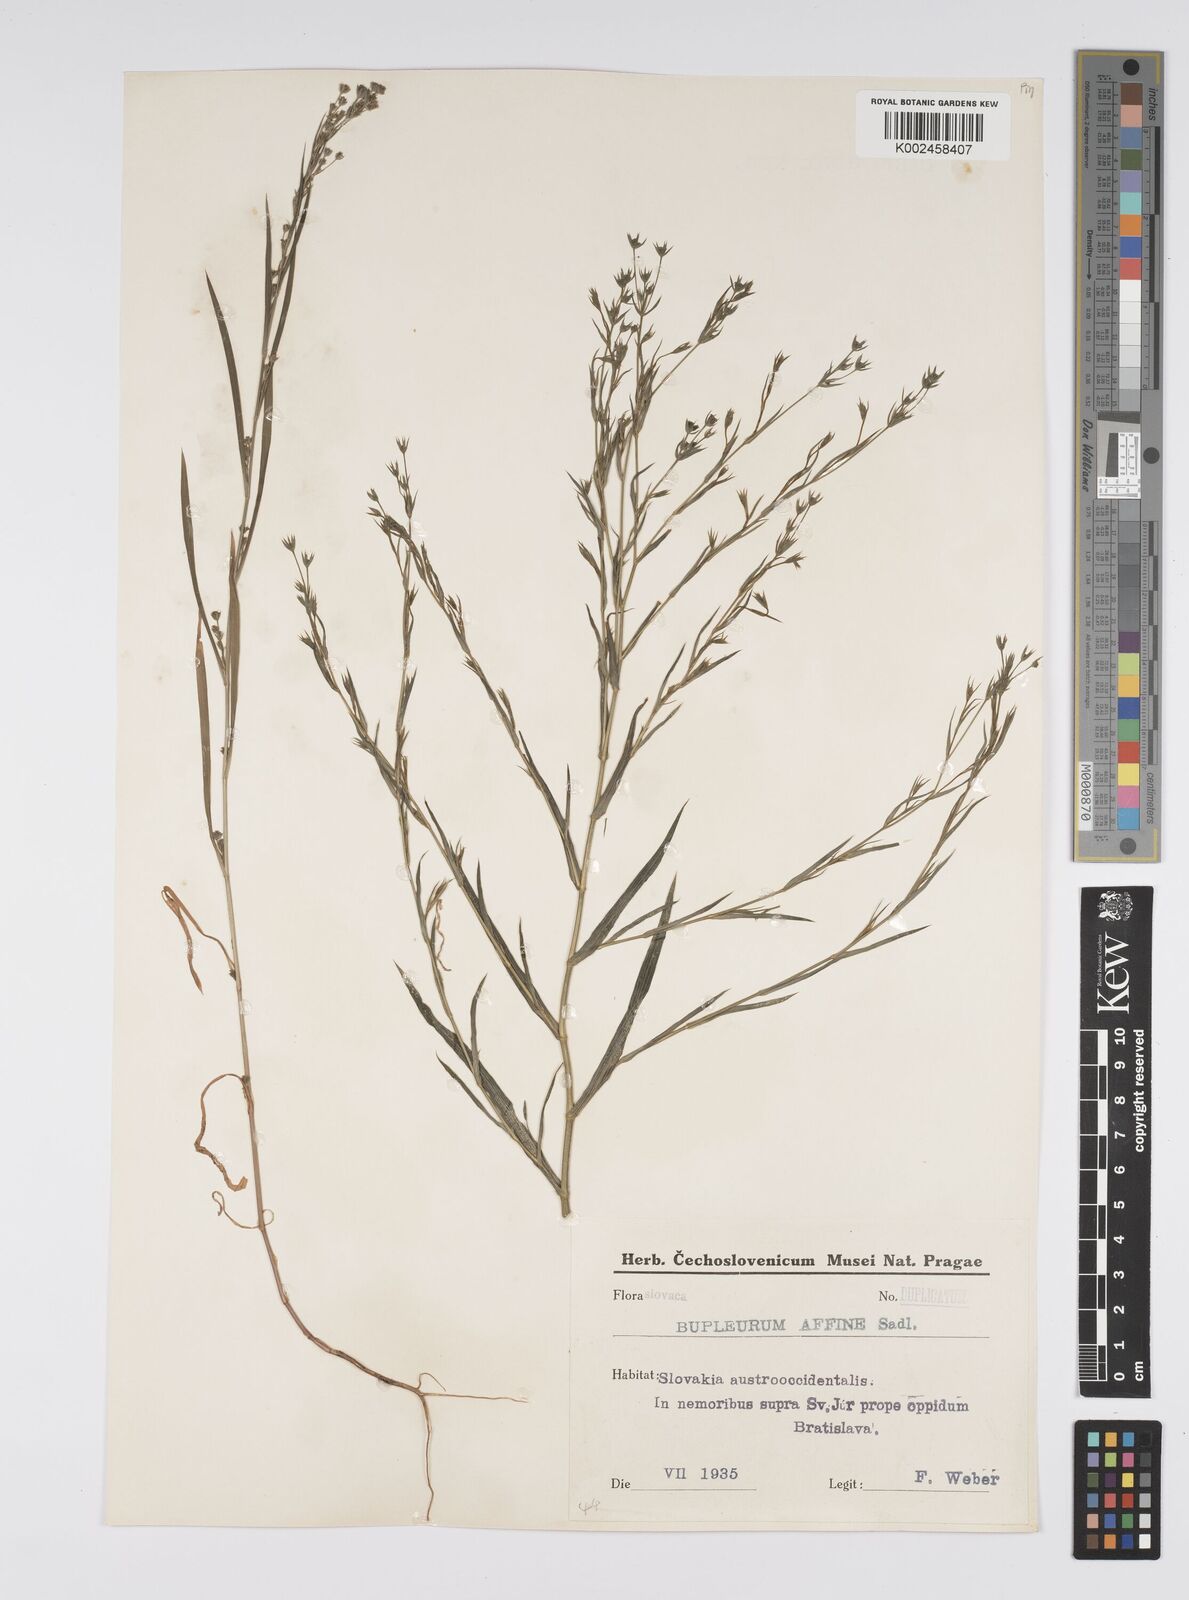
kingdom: Plantae
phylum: Tracheophyta
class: Magnoliopsida
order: Apiales
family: Apiaceae
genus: Bupleurum
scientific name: Bupleurum affine
